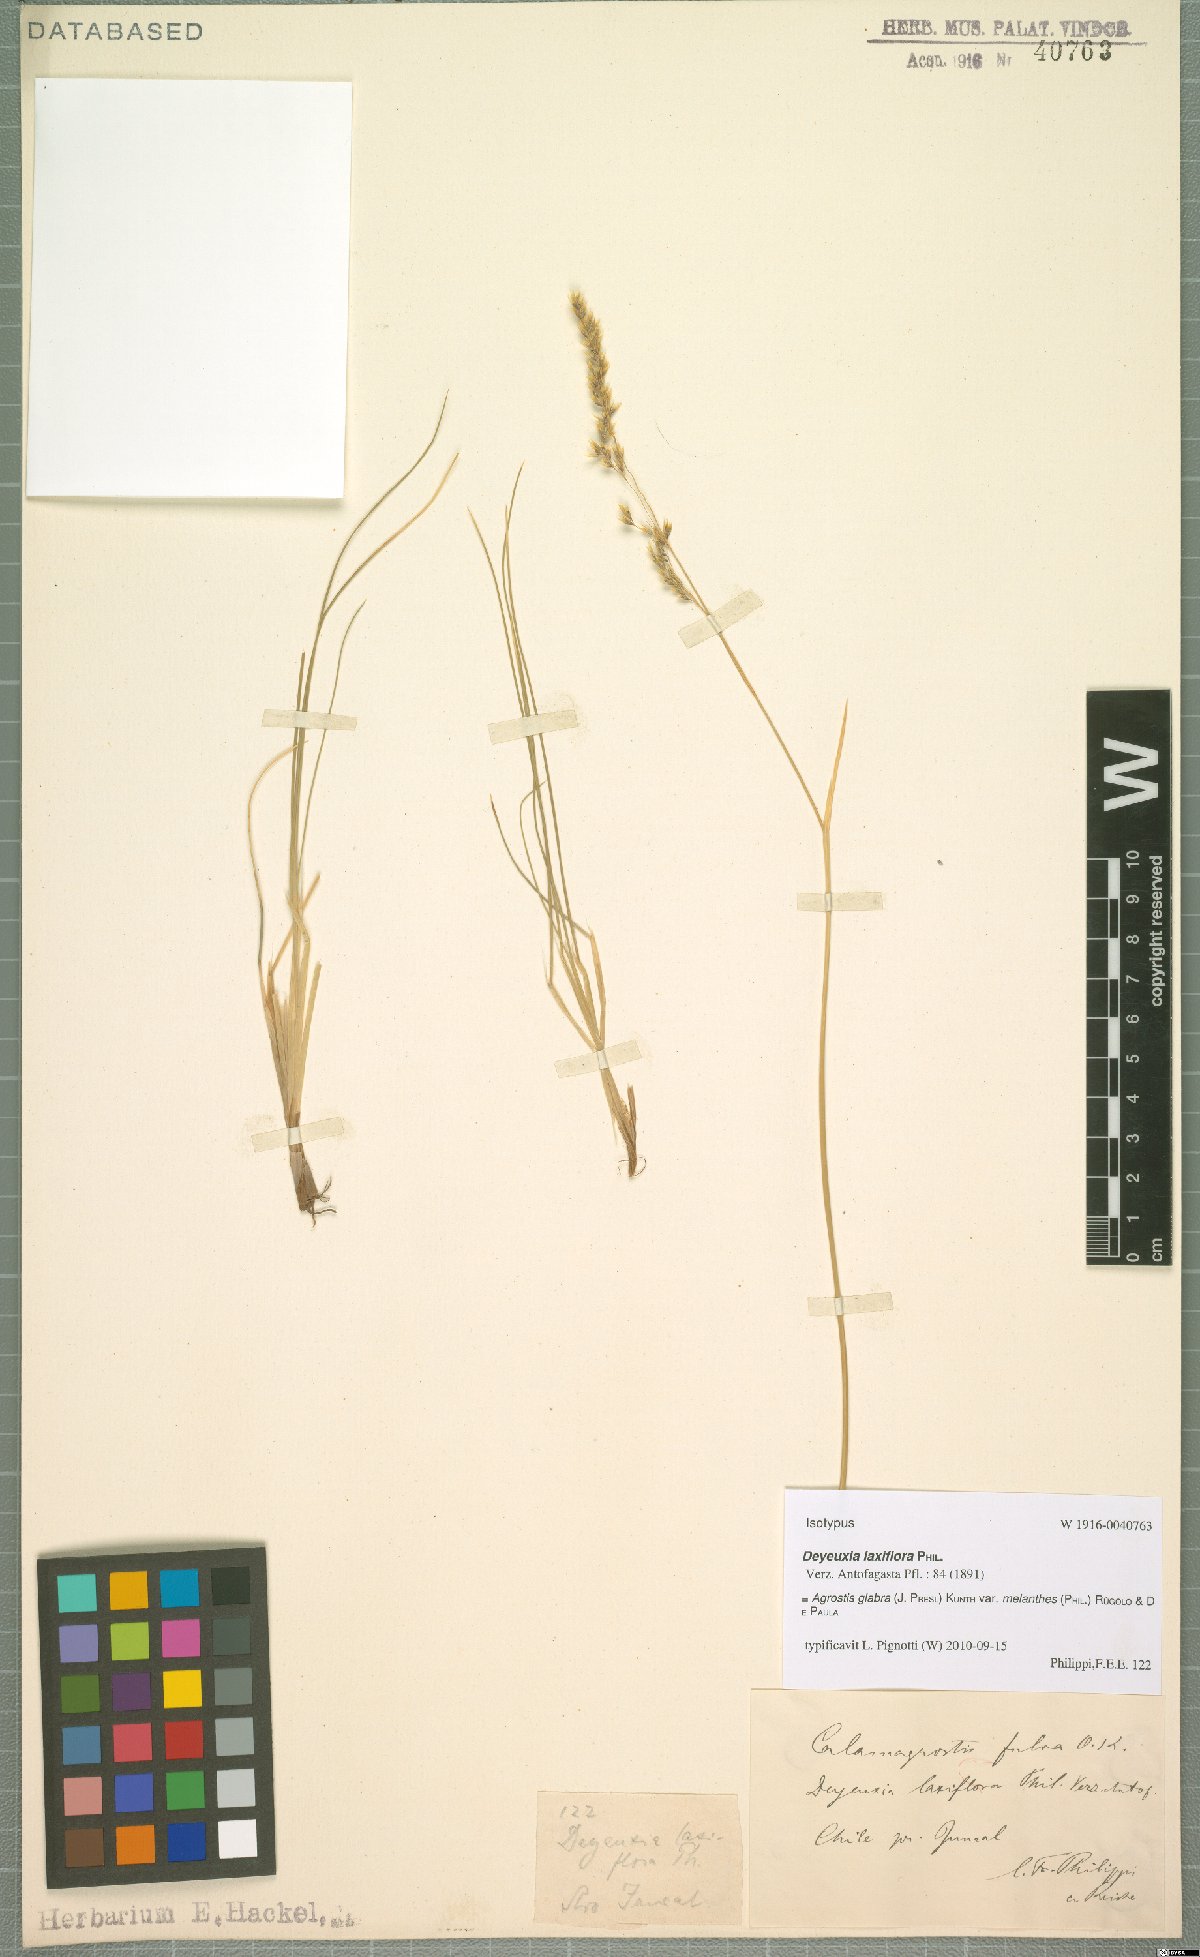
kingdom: Plantae
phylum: Tracheophyta
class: Liliopsida
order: Poales
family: Poaceae
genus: Agrostis
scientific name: Agrostis glabra
